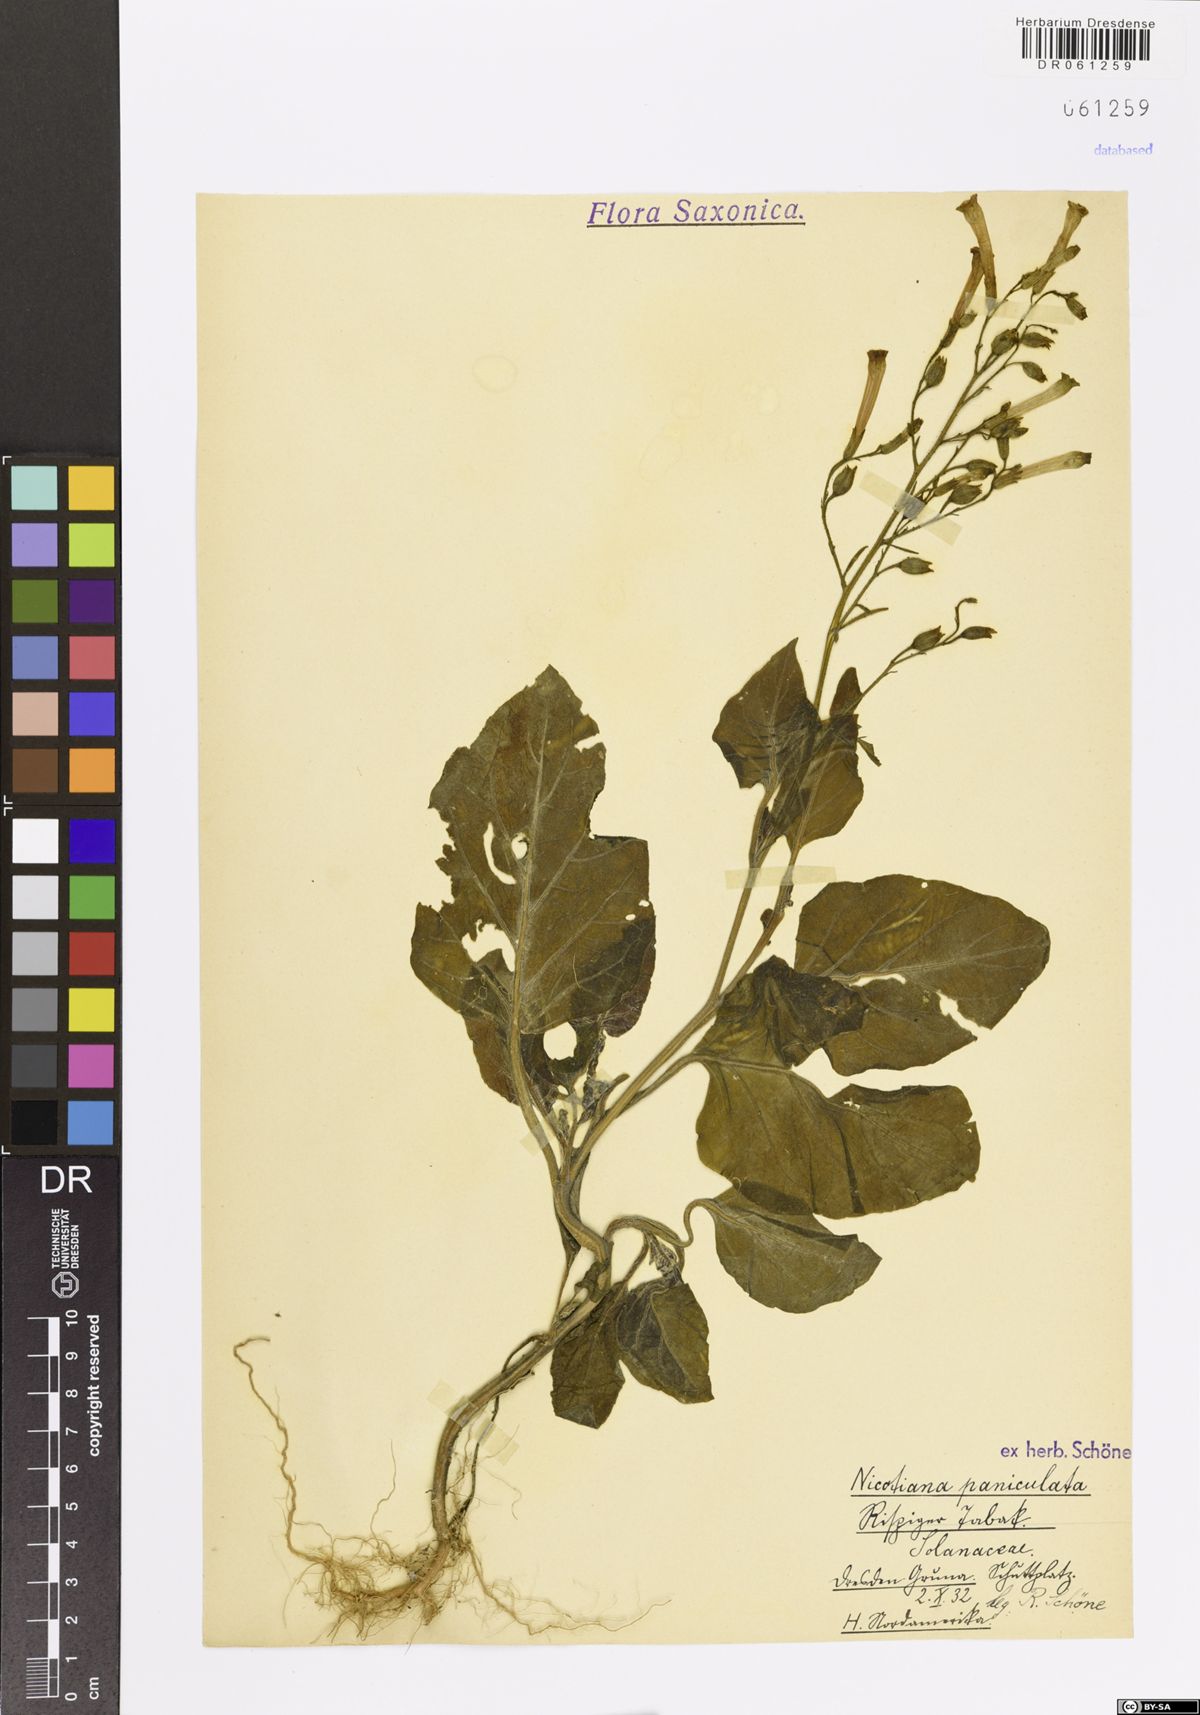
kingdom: Plantae
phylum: Tracheophyta
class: Magnoliopsida
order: Solanales
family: Solanaceae
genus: Nicotiana
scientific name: Nicotiana paniculata
